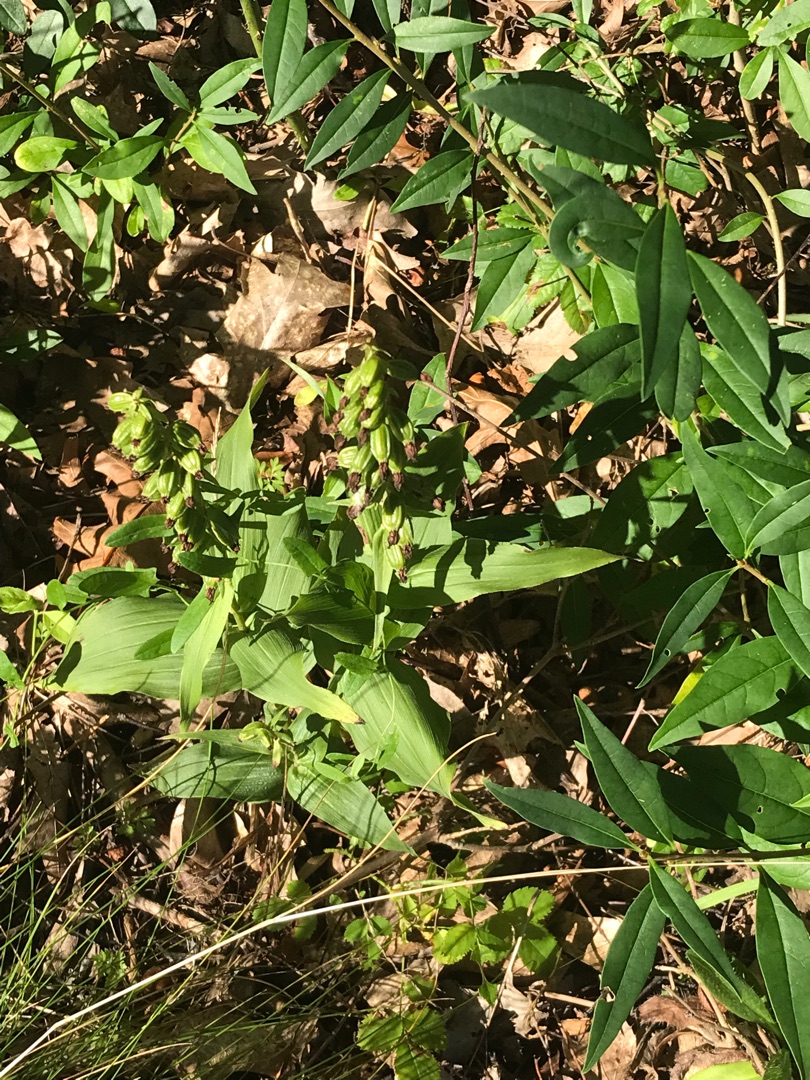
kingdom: Plantae
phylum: Tracheophyta
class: Liliopsida
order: Asparagales
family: Orchidaceae
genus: Epipactis
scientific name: Epipactis helleborine
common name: Skov-hullæbe
